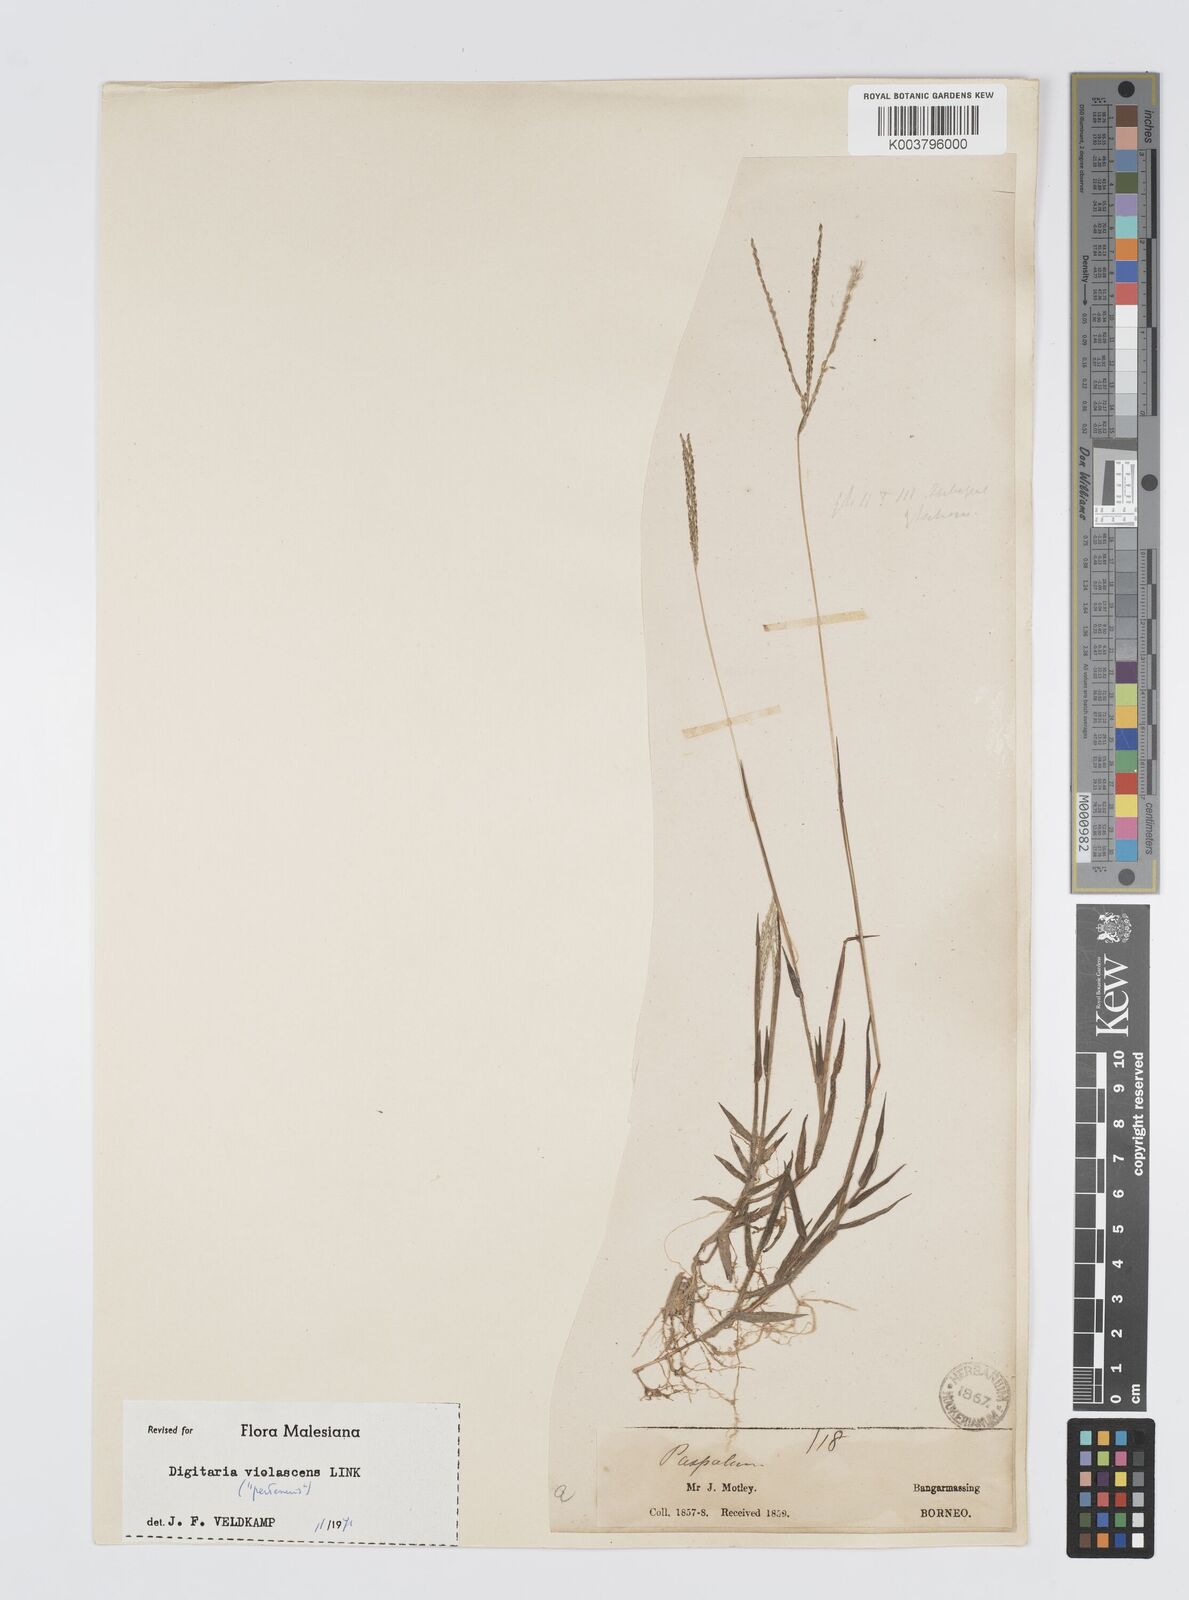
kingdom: Plantae
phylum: Tracheophyta
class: Liliopsida
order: Poales
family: Poaceae
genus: Digitaria
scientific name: Digitaria violascens
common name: Violet crabgrass
